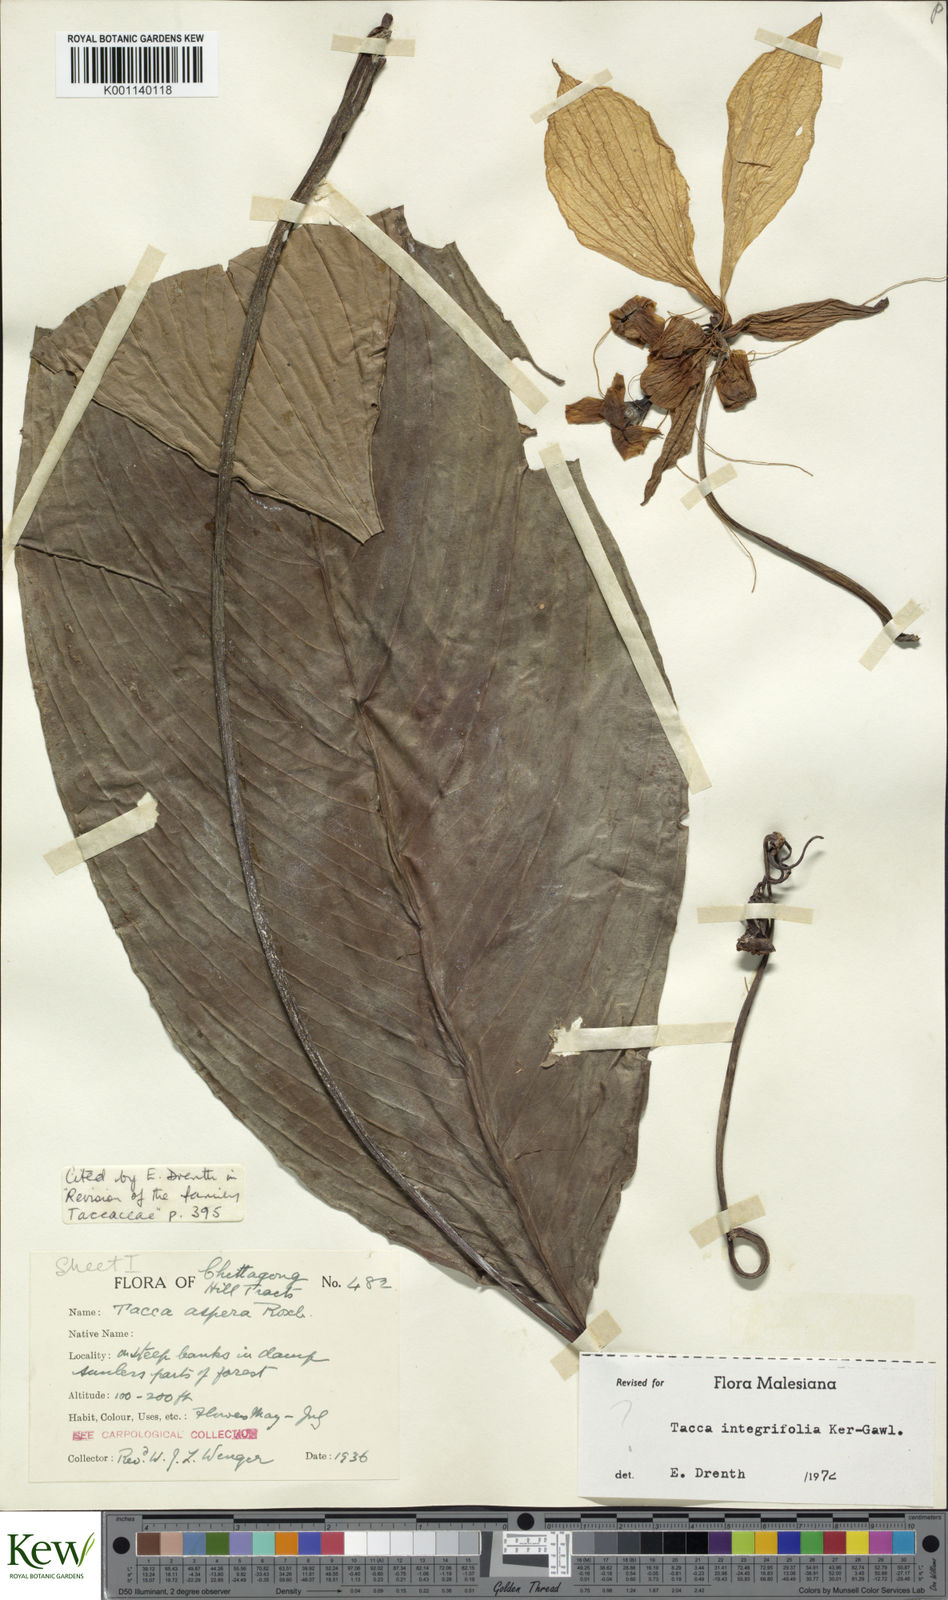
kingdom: Plantae
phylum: Tracheophyta
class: Liliopsida
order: Dioscoreales
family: Dioscoreaceae
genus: Tacca
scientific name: Tacca
